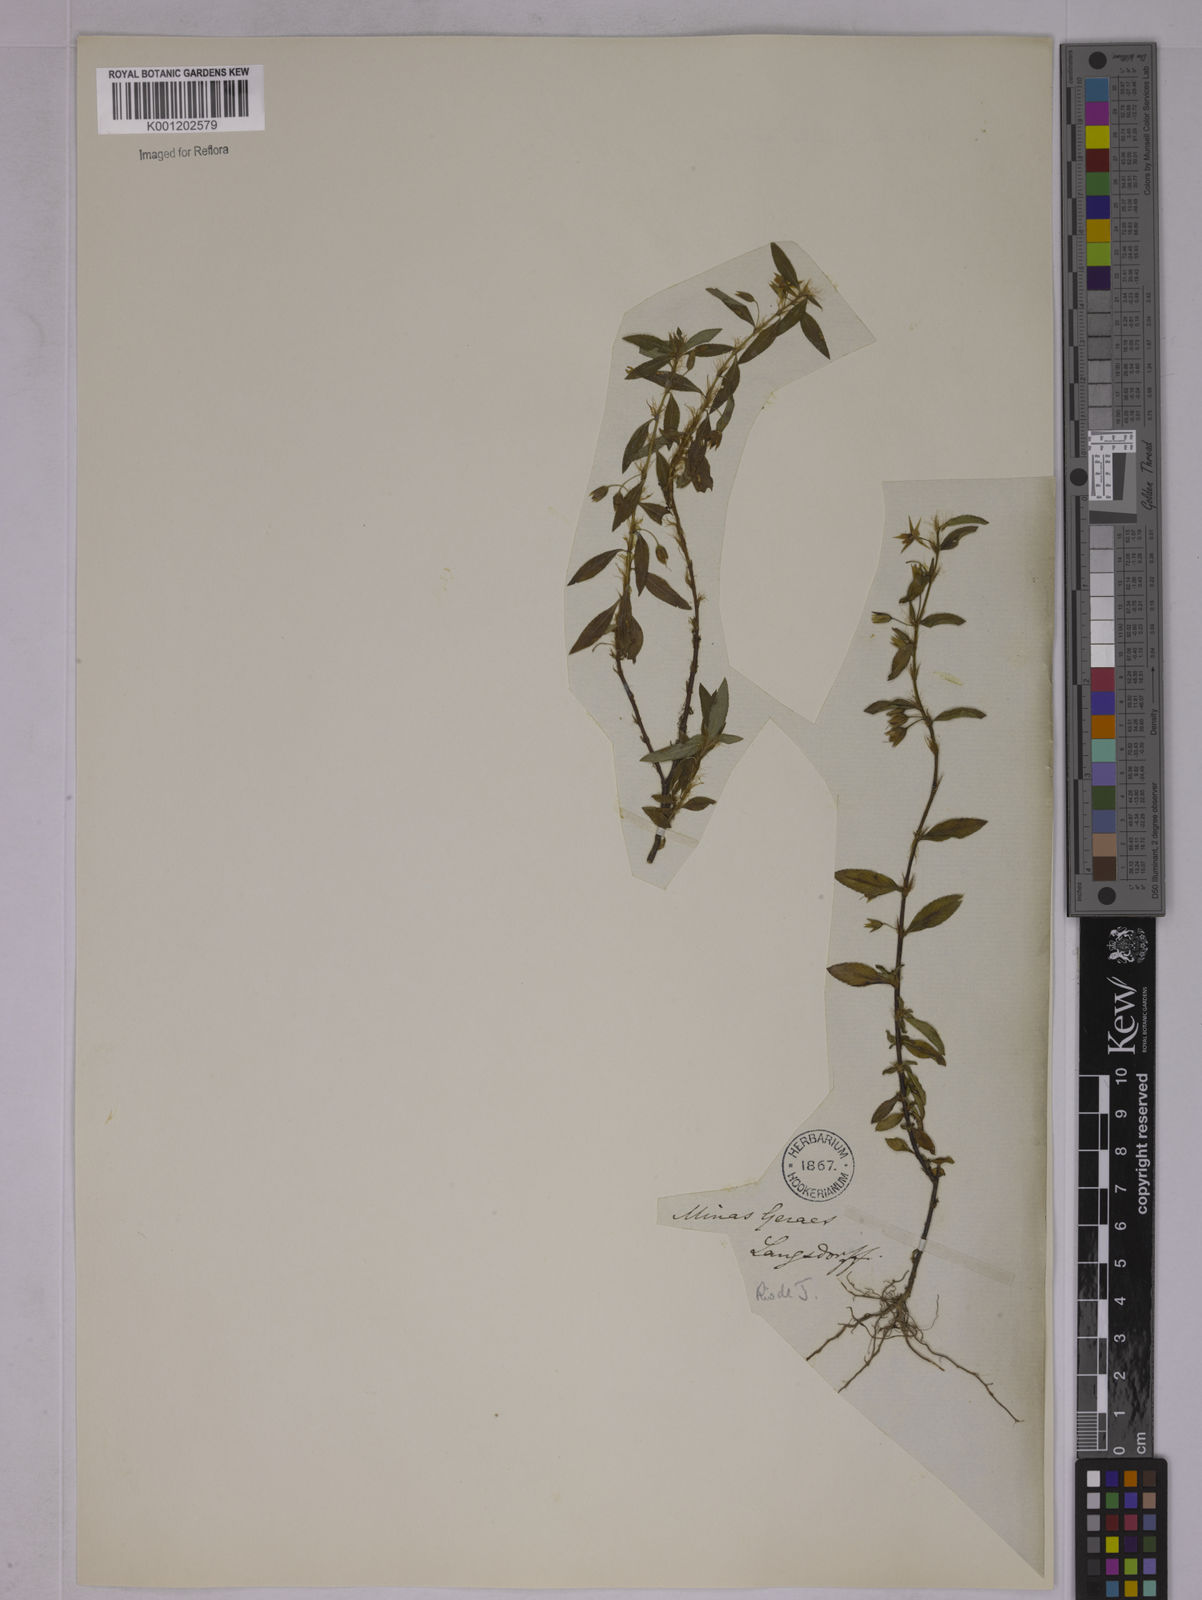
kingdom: Plantae
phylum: Tracheophyta
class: Magnoliopsida
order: Malpighiales
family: Ochnaceae
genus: Sauvagesia
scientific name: Sauvagesia erecta
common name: Creole tea
